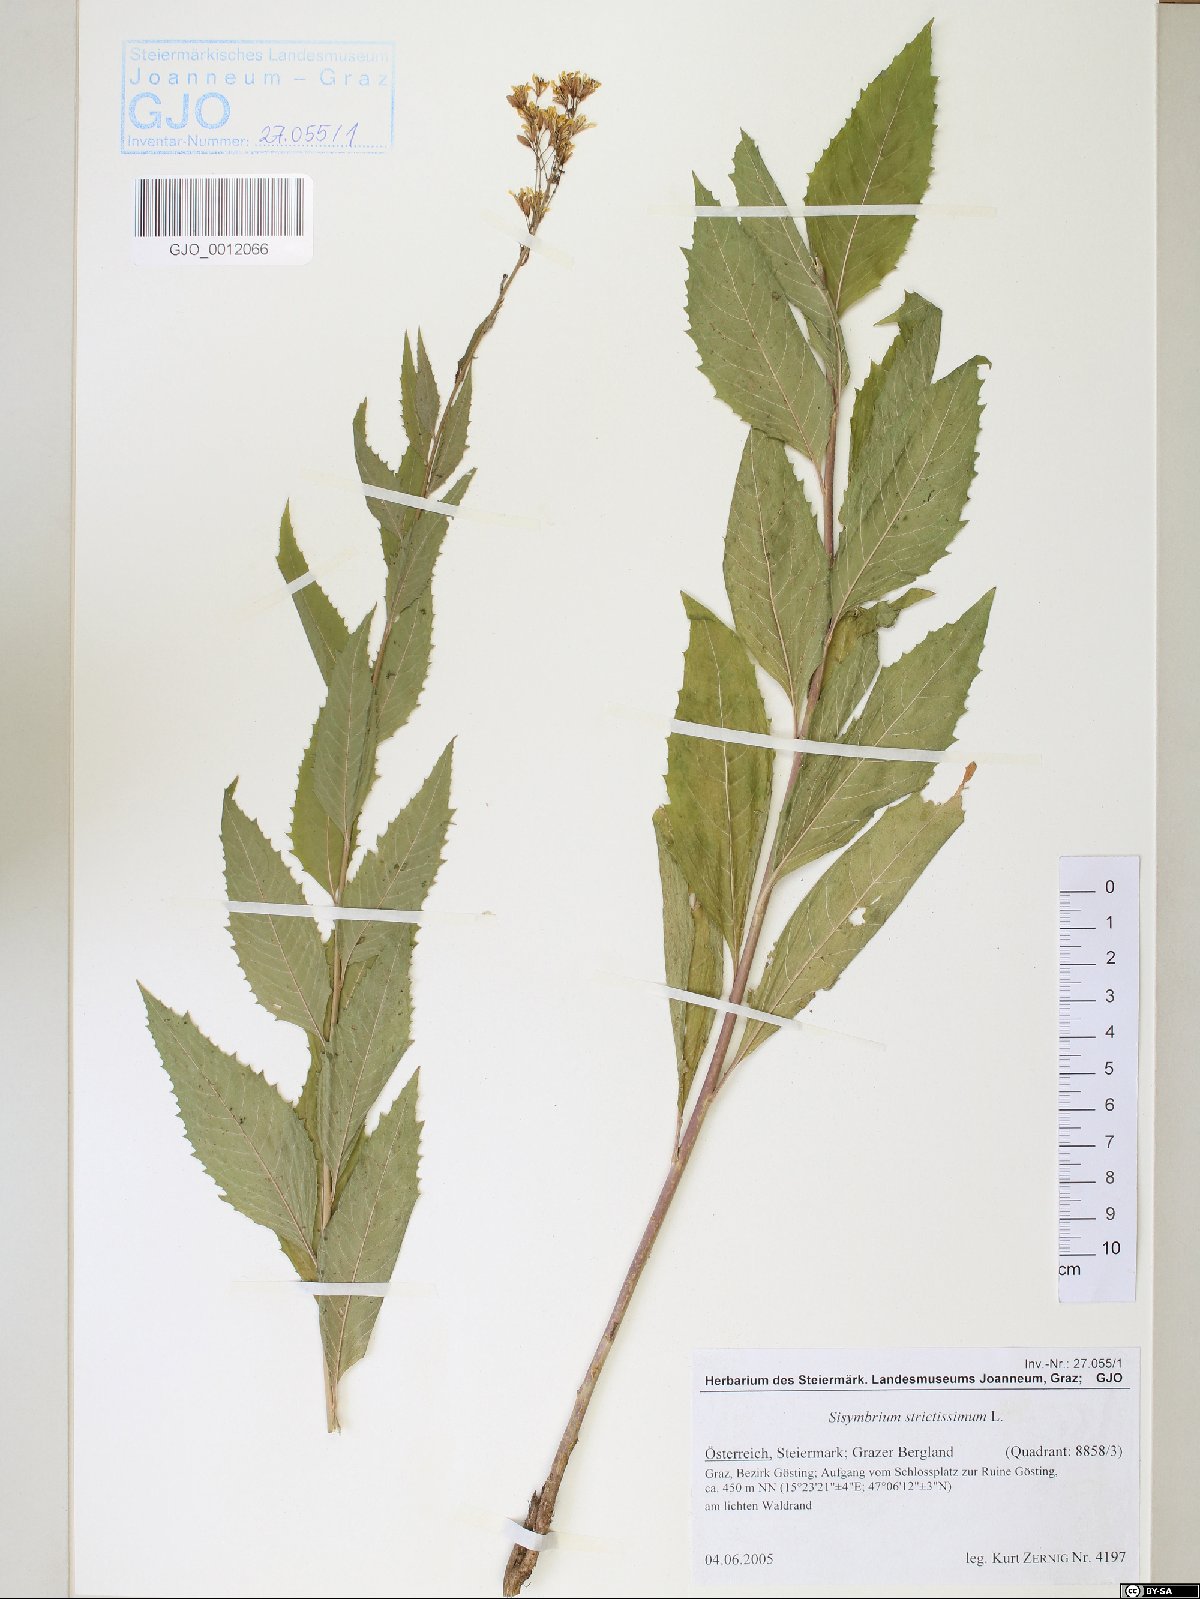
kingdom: Plantae
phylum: Tracheophyta
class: Magnoliopsida
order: Brassicales
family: Brassicaceae
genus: Sisymbrium
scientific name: Sisymbrium strictissimum
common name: Perennial rocket
